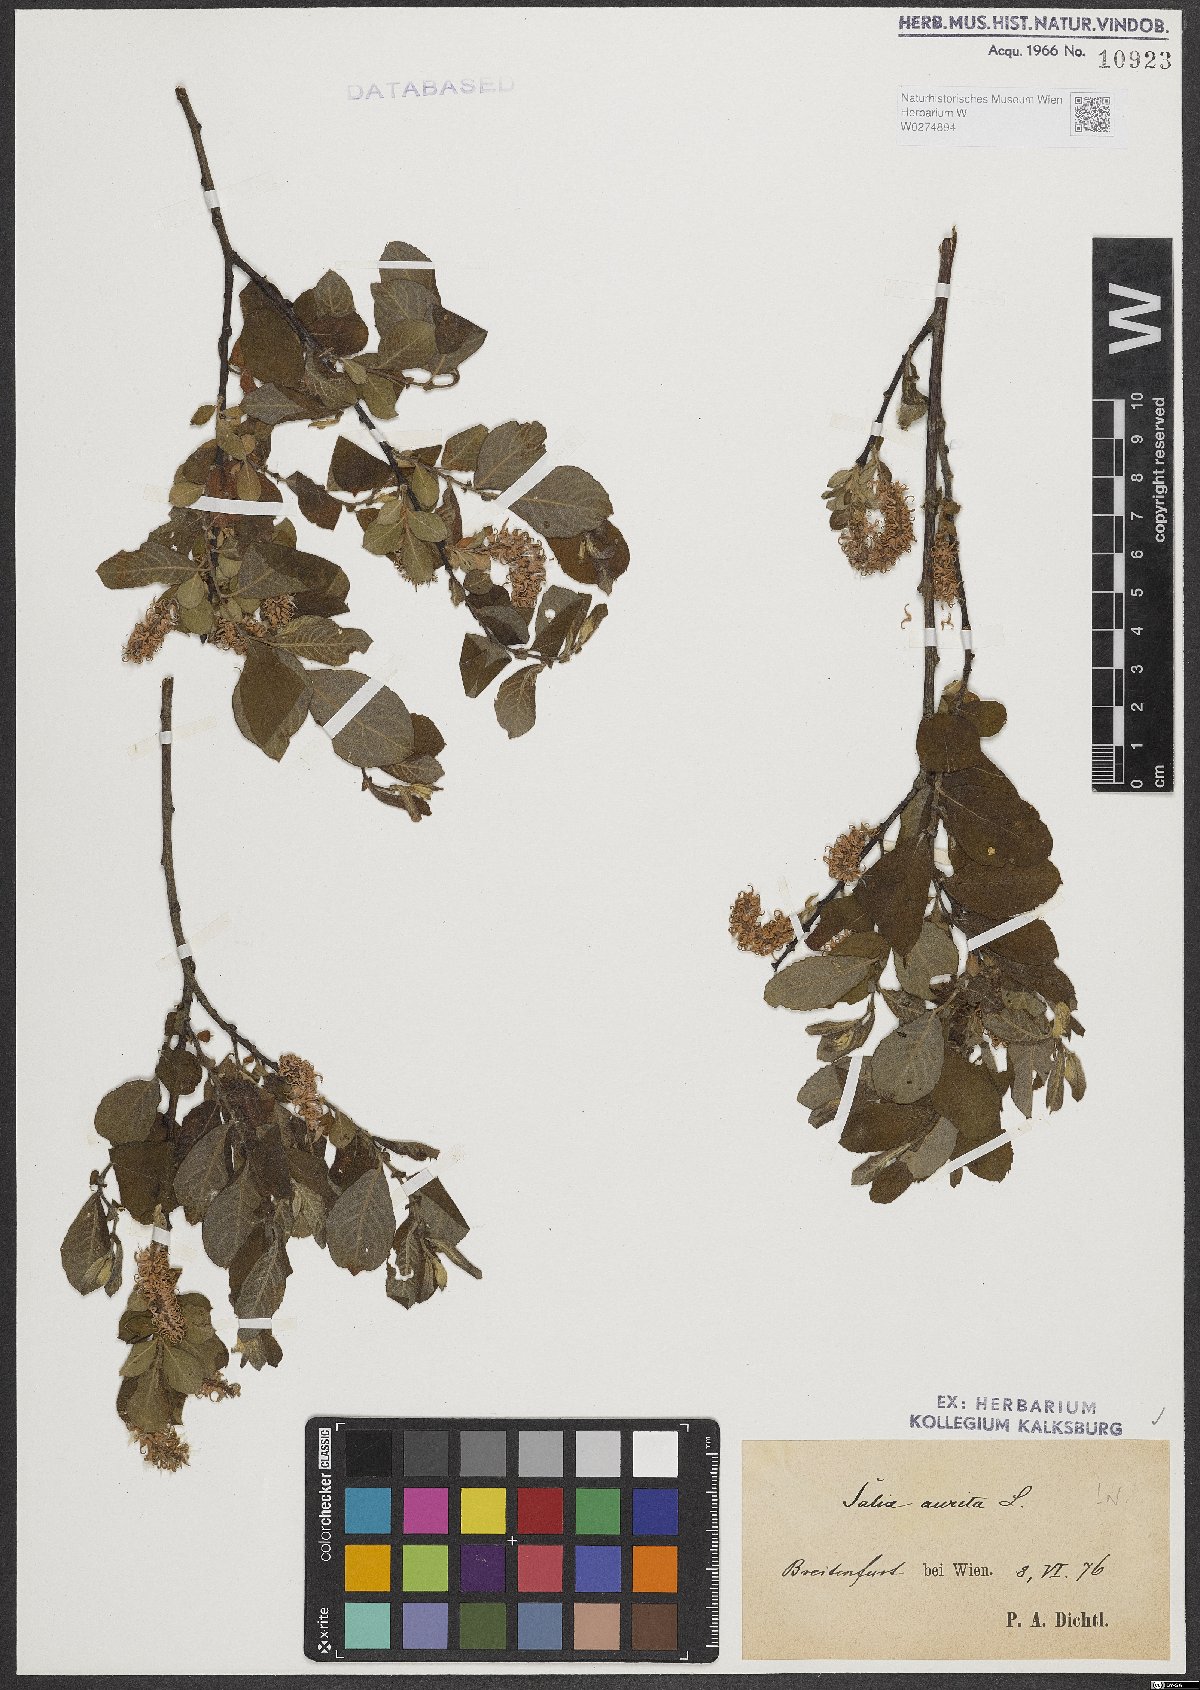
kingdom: Plantae
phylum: Tracheophyta
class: Magnoliopsida
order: Malpighiales
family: Salicaceae
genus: Salix
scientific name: Salix aurita
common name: Eared willow
